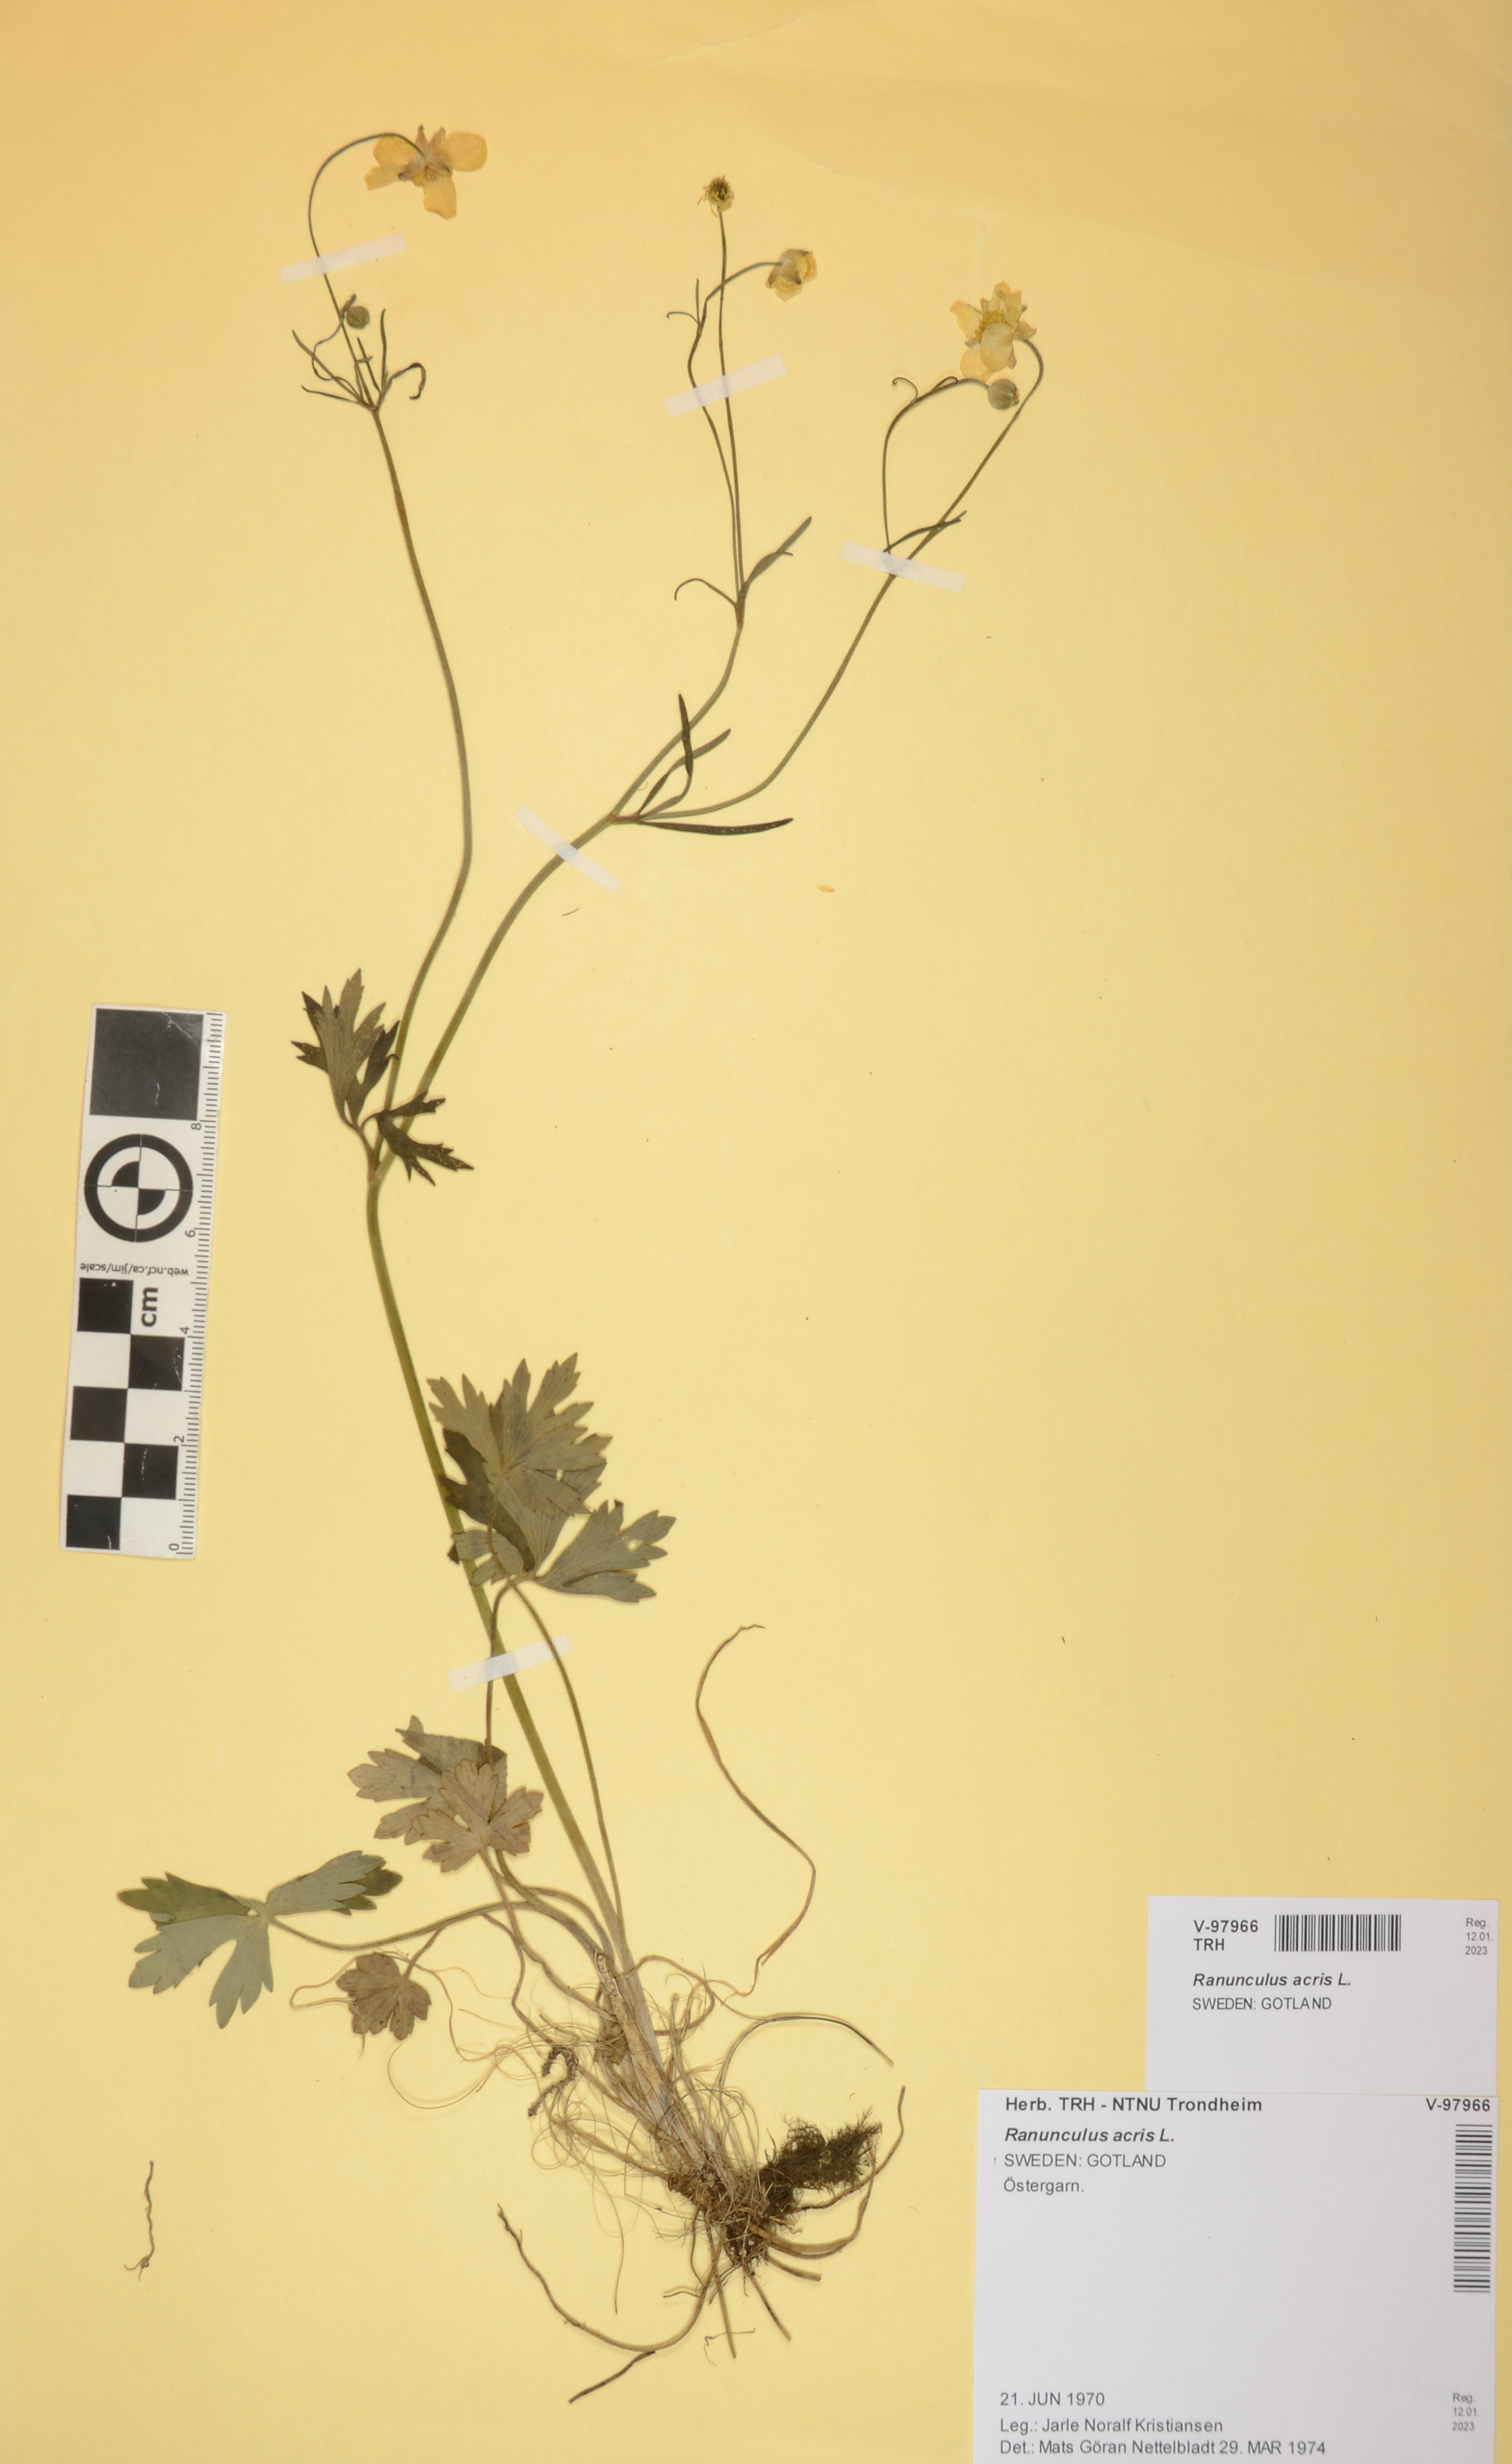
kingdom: Plantae
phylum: Tracheophyta
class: Magnoliopsida
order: Ranunculales
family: Ranunculaceae
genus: Ranunculus
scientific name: Ranunculus acris
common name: Meadow buttercup
